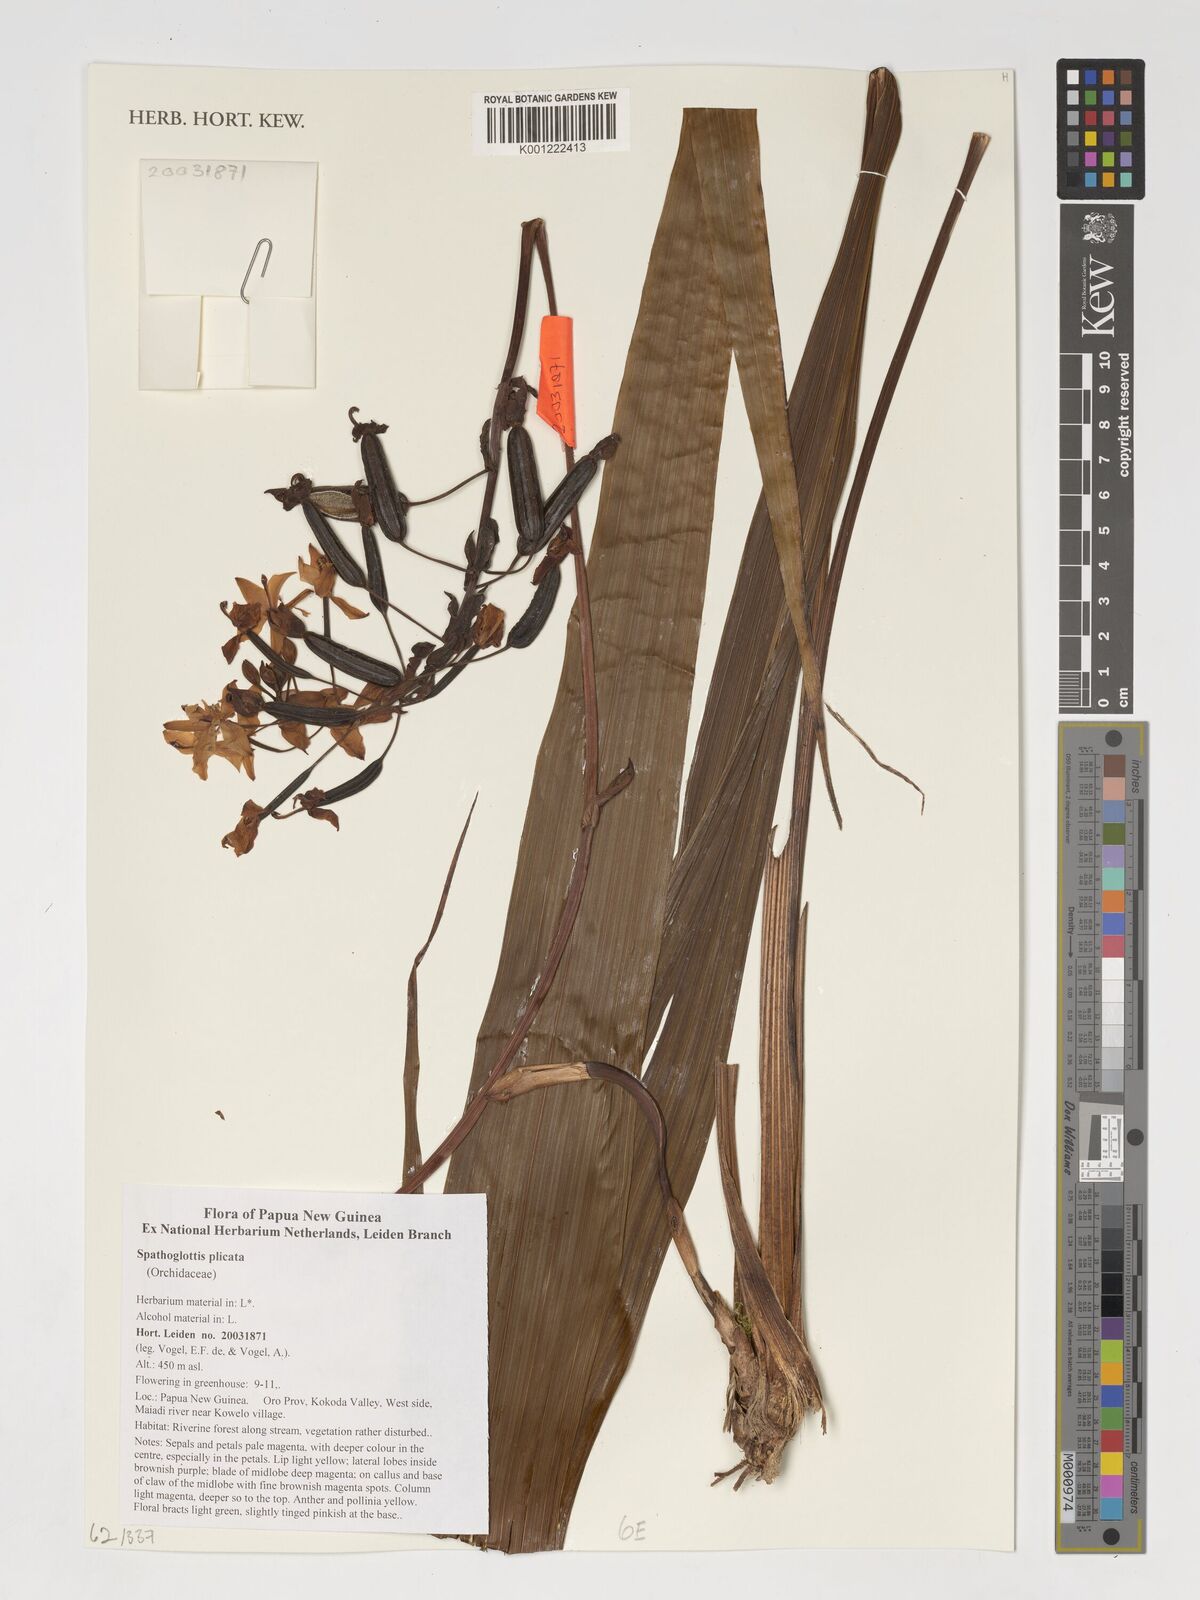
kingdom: Plantae
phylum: Tracheophyta
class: Liliopsida
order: Asparagales
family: Orchidaceae
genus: Spathoglottis
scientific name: Spathoglottis plicata
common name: Philippine ground orchid
